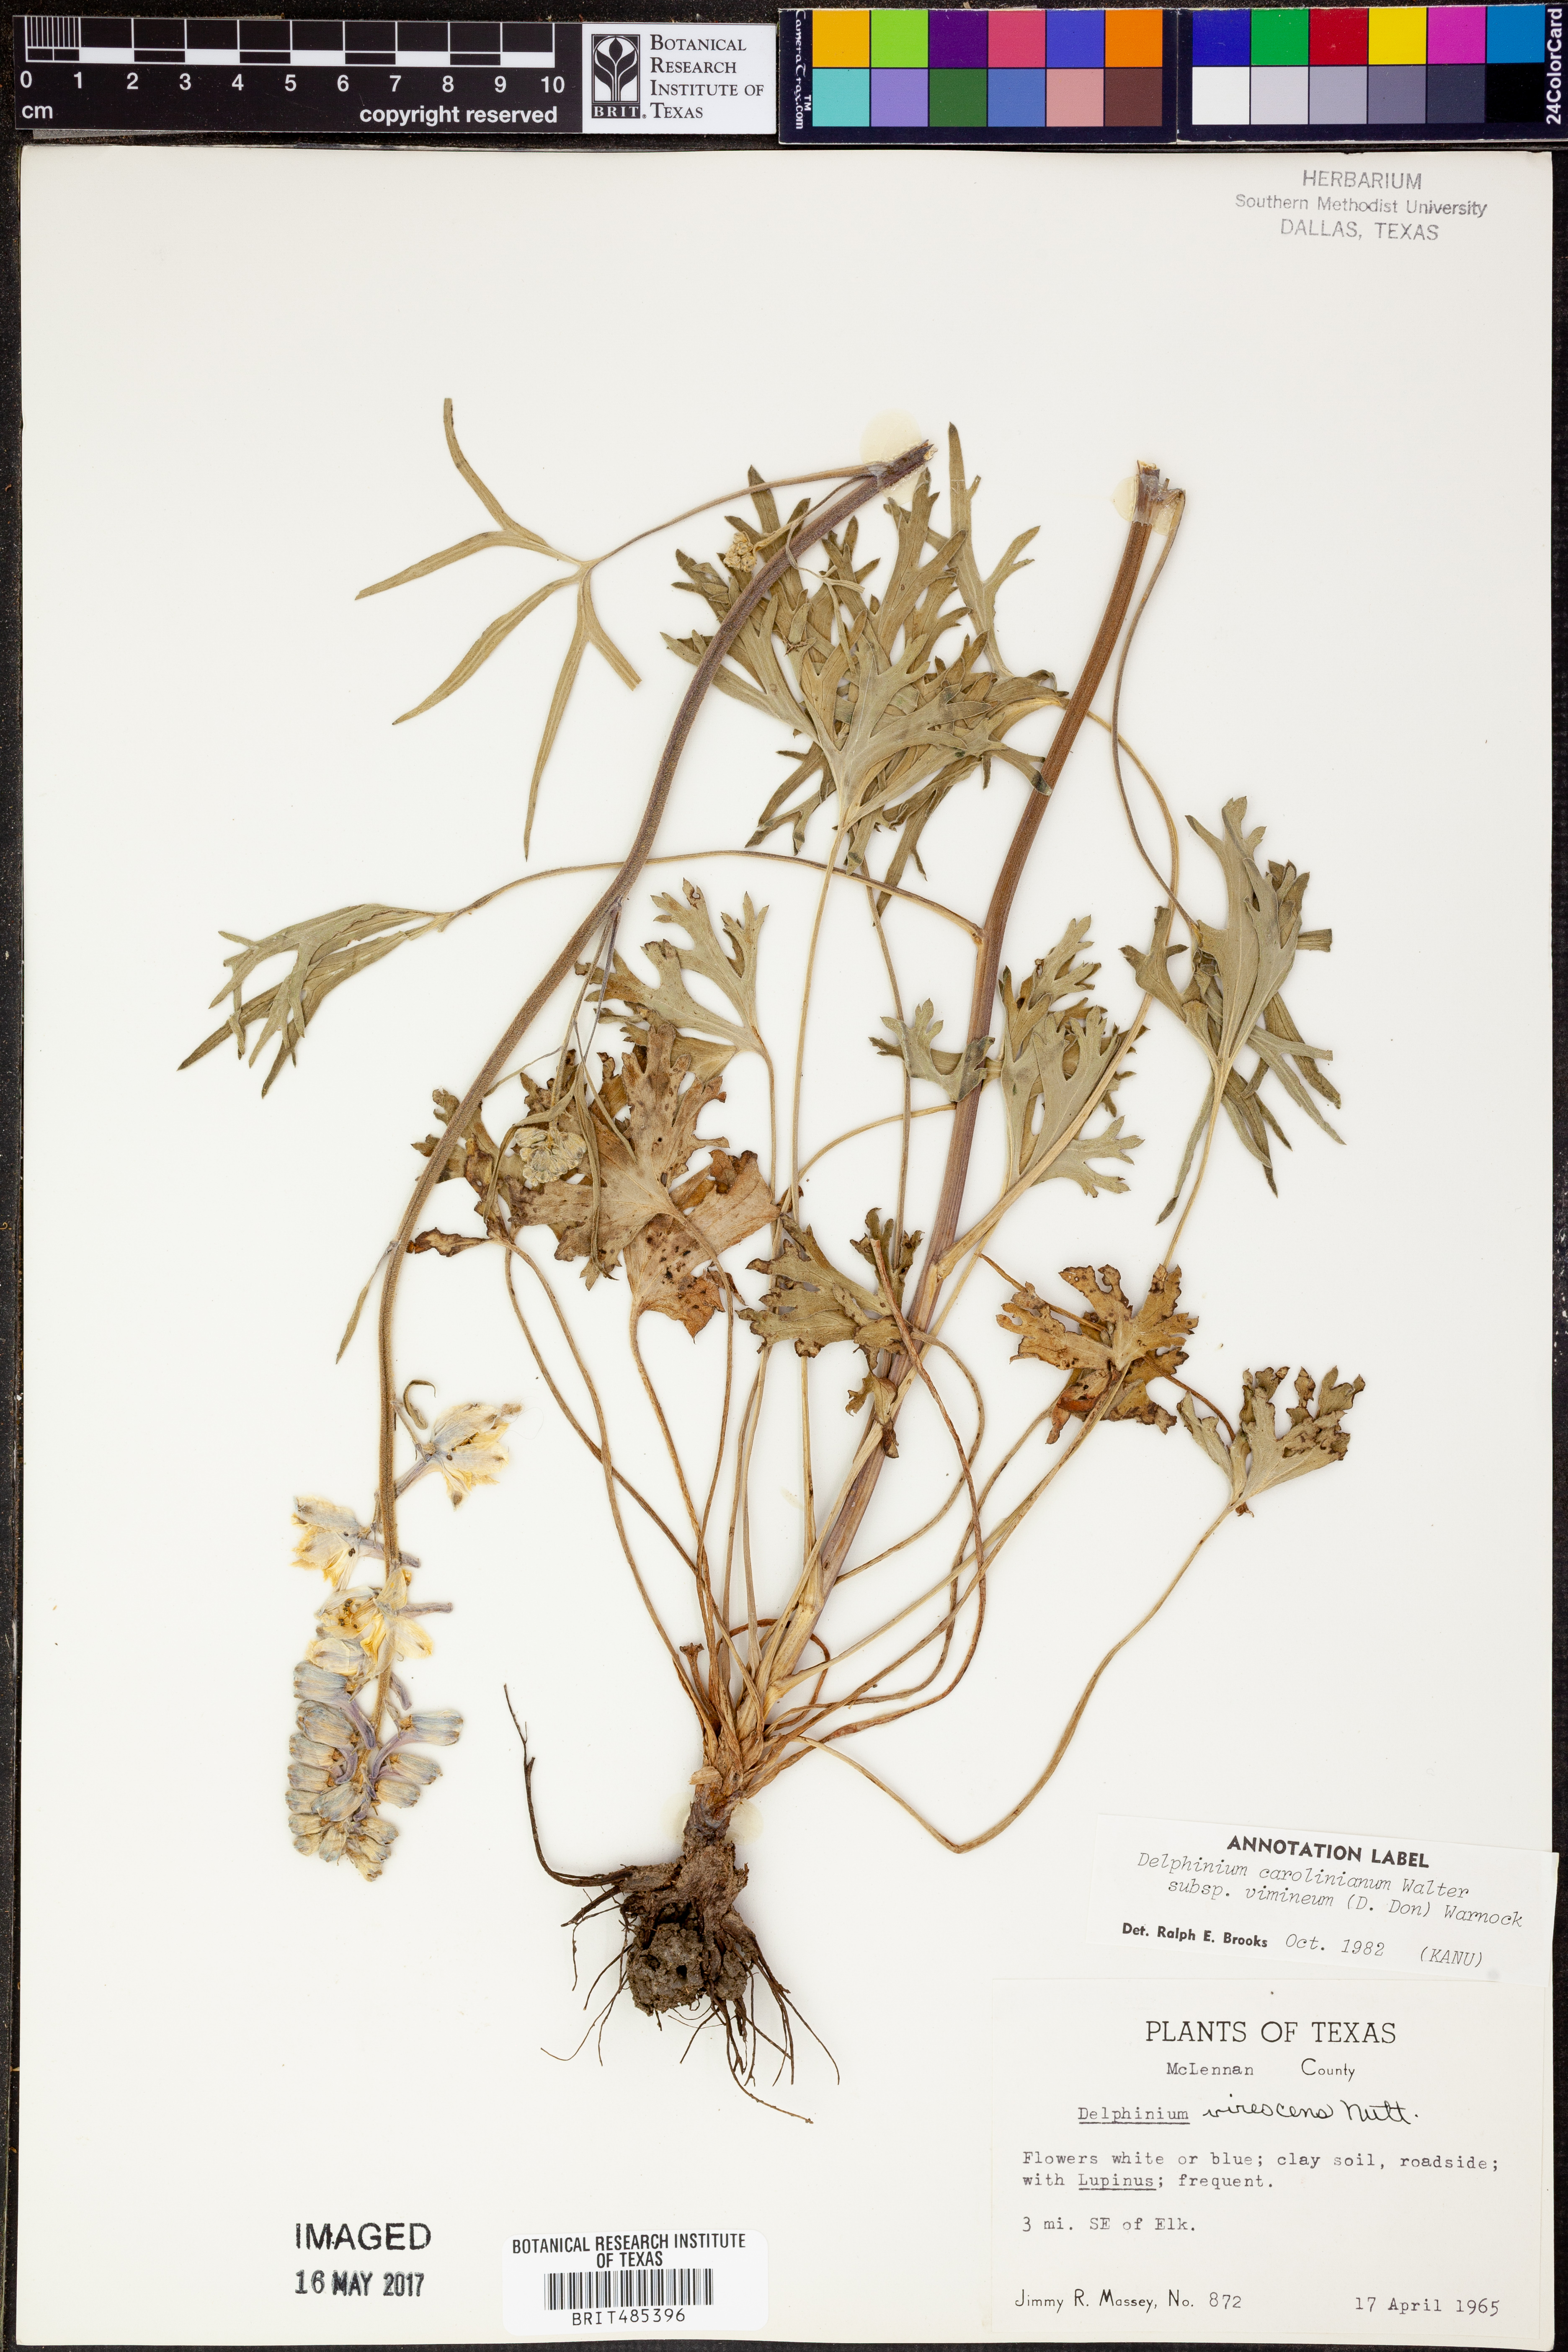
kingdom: Plantae
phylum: Tracheophyta
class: Magnoliopsida
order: Ranunculales
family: Ranunculaceae
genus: Delphinium
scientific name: Delphinium carolinianum
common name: Carolina larkspur
